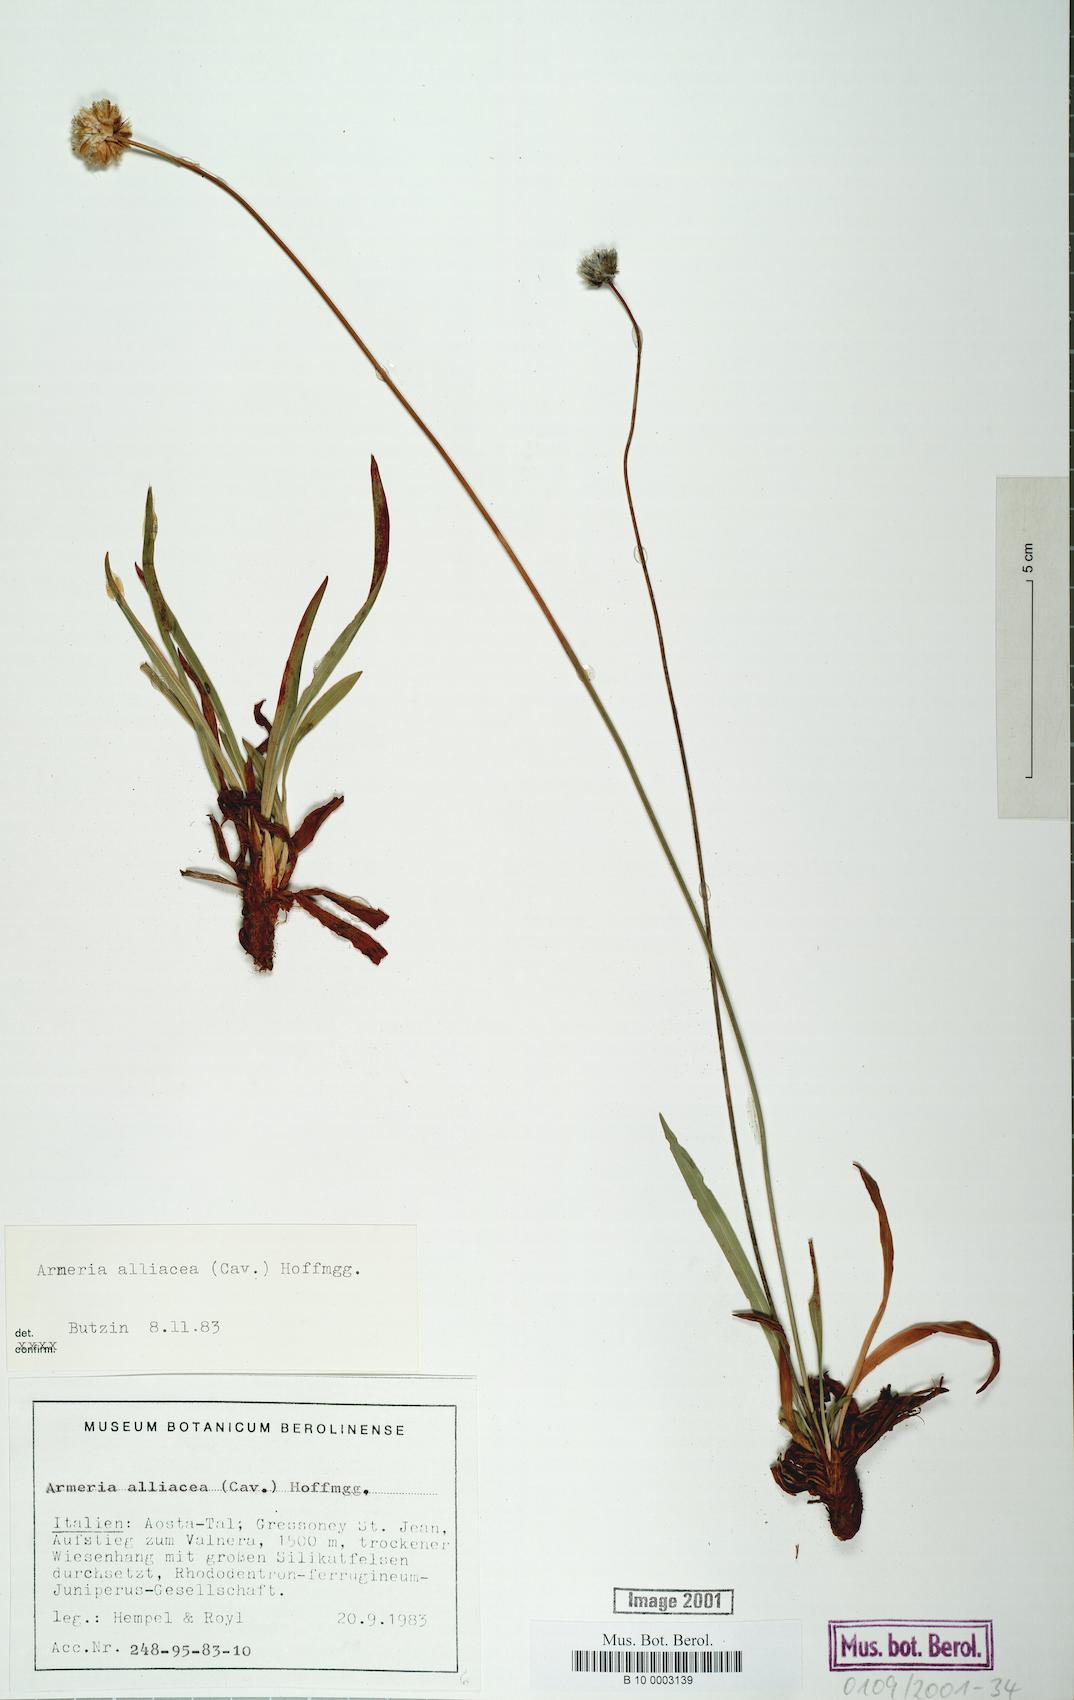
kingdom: Plantae
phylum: Tracheophyta
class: Magnoliopsida
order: Caryophyllales
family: Plumbaginaceae
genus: Armeria
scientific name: Armeria alliacea
